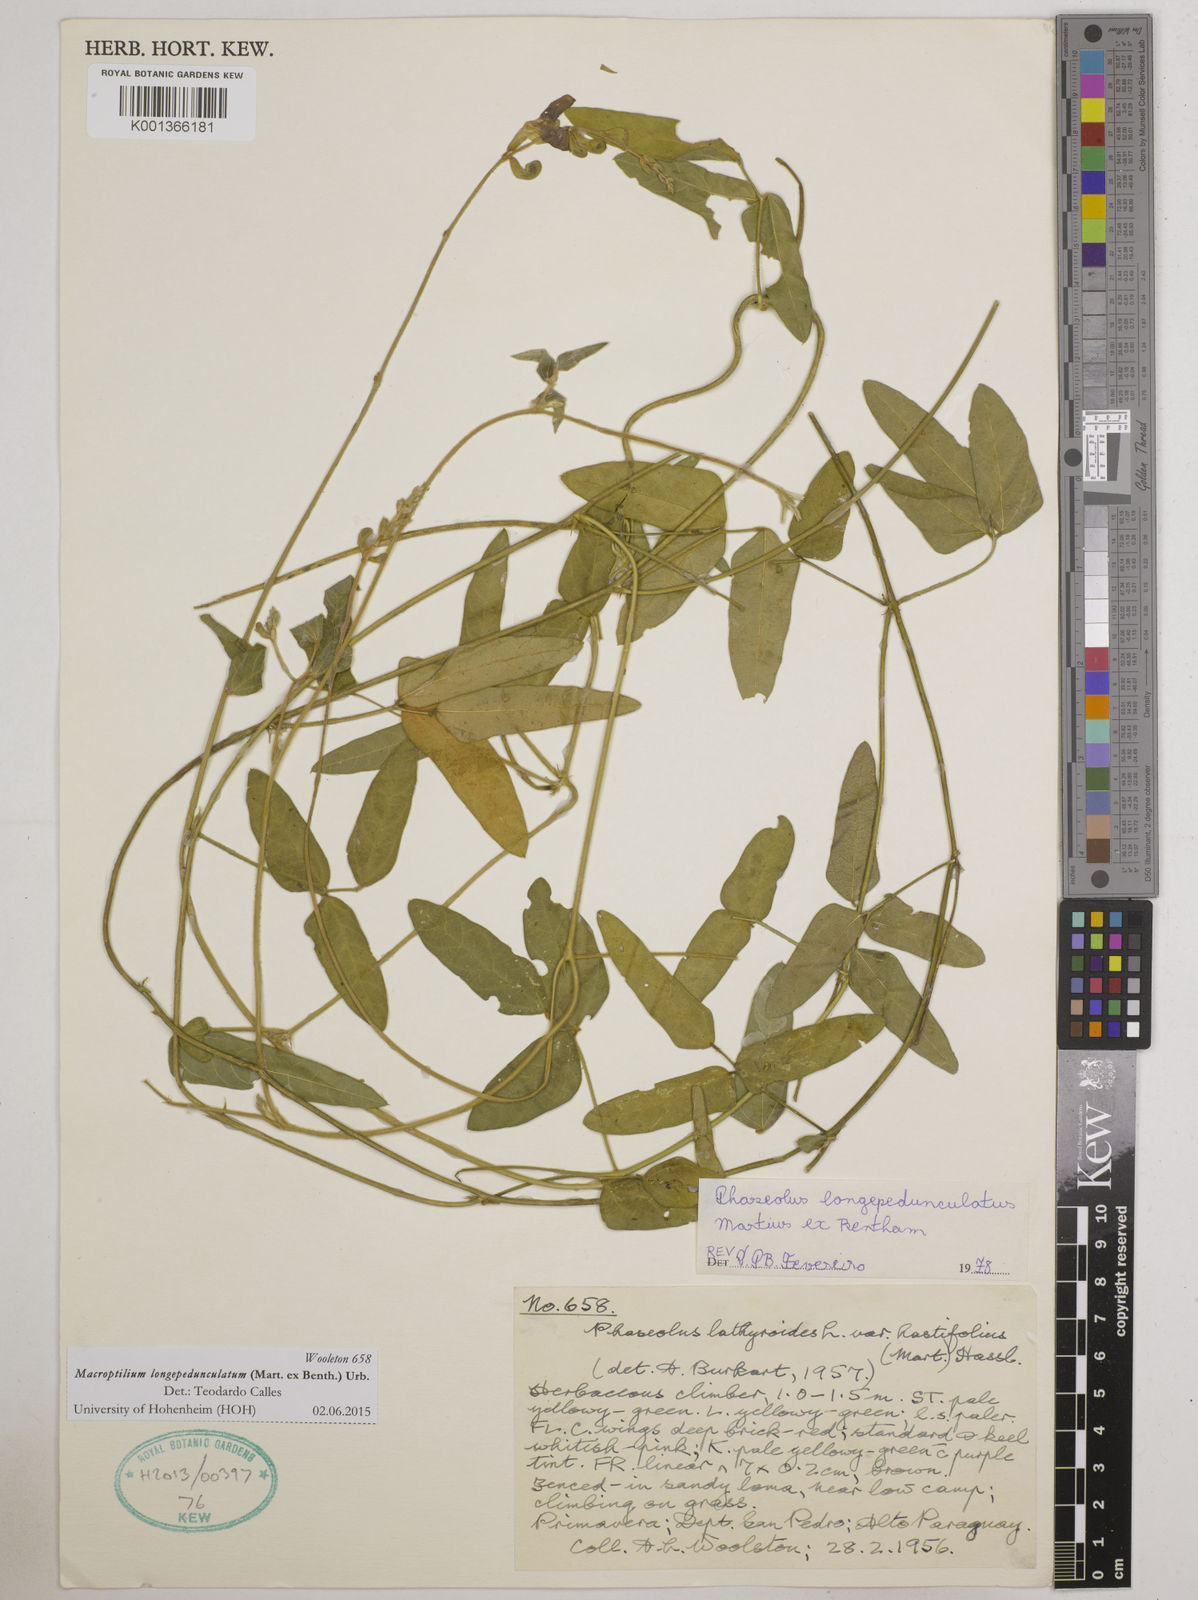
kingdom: Plantae
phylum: Tracheophyta
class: Magnoliopsida
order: Fabales
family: Fabaceae
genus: Macroptilium
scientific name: Macroptilium longepedunculatum
